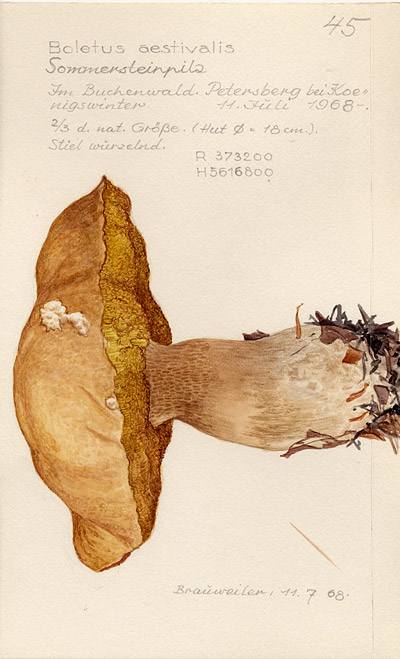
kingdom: Fungi
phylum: Basidiomycota
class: Agaricomycetes
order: Boletales
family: Boletaceae
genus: Boletus
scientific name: Boletus reticulatus
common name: Summer bolete
